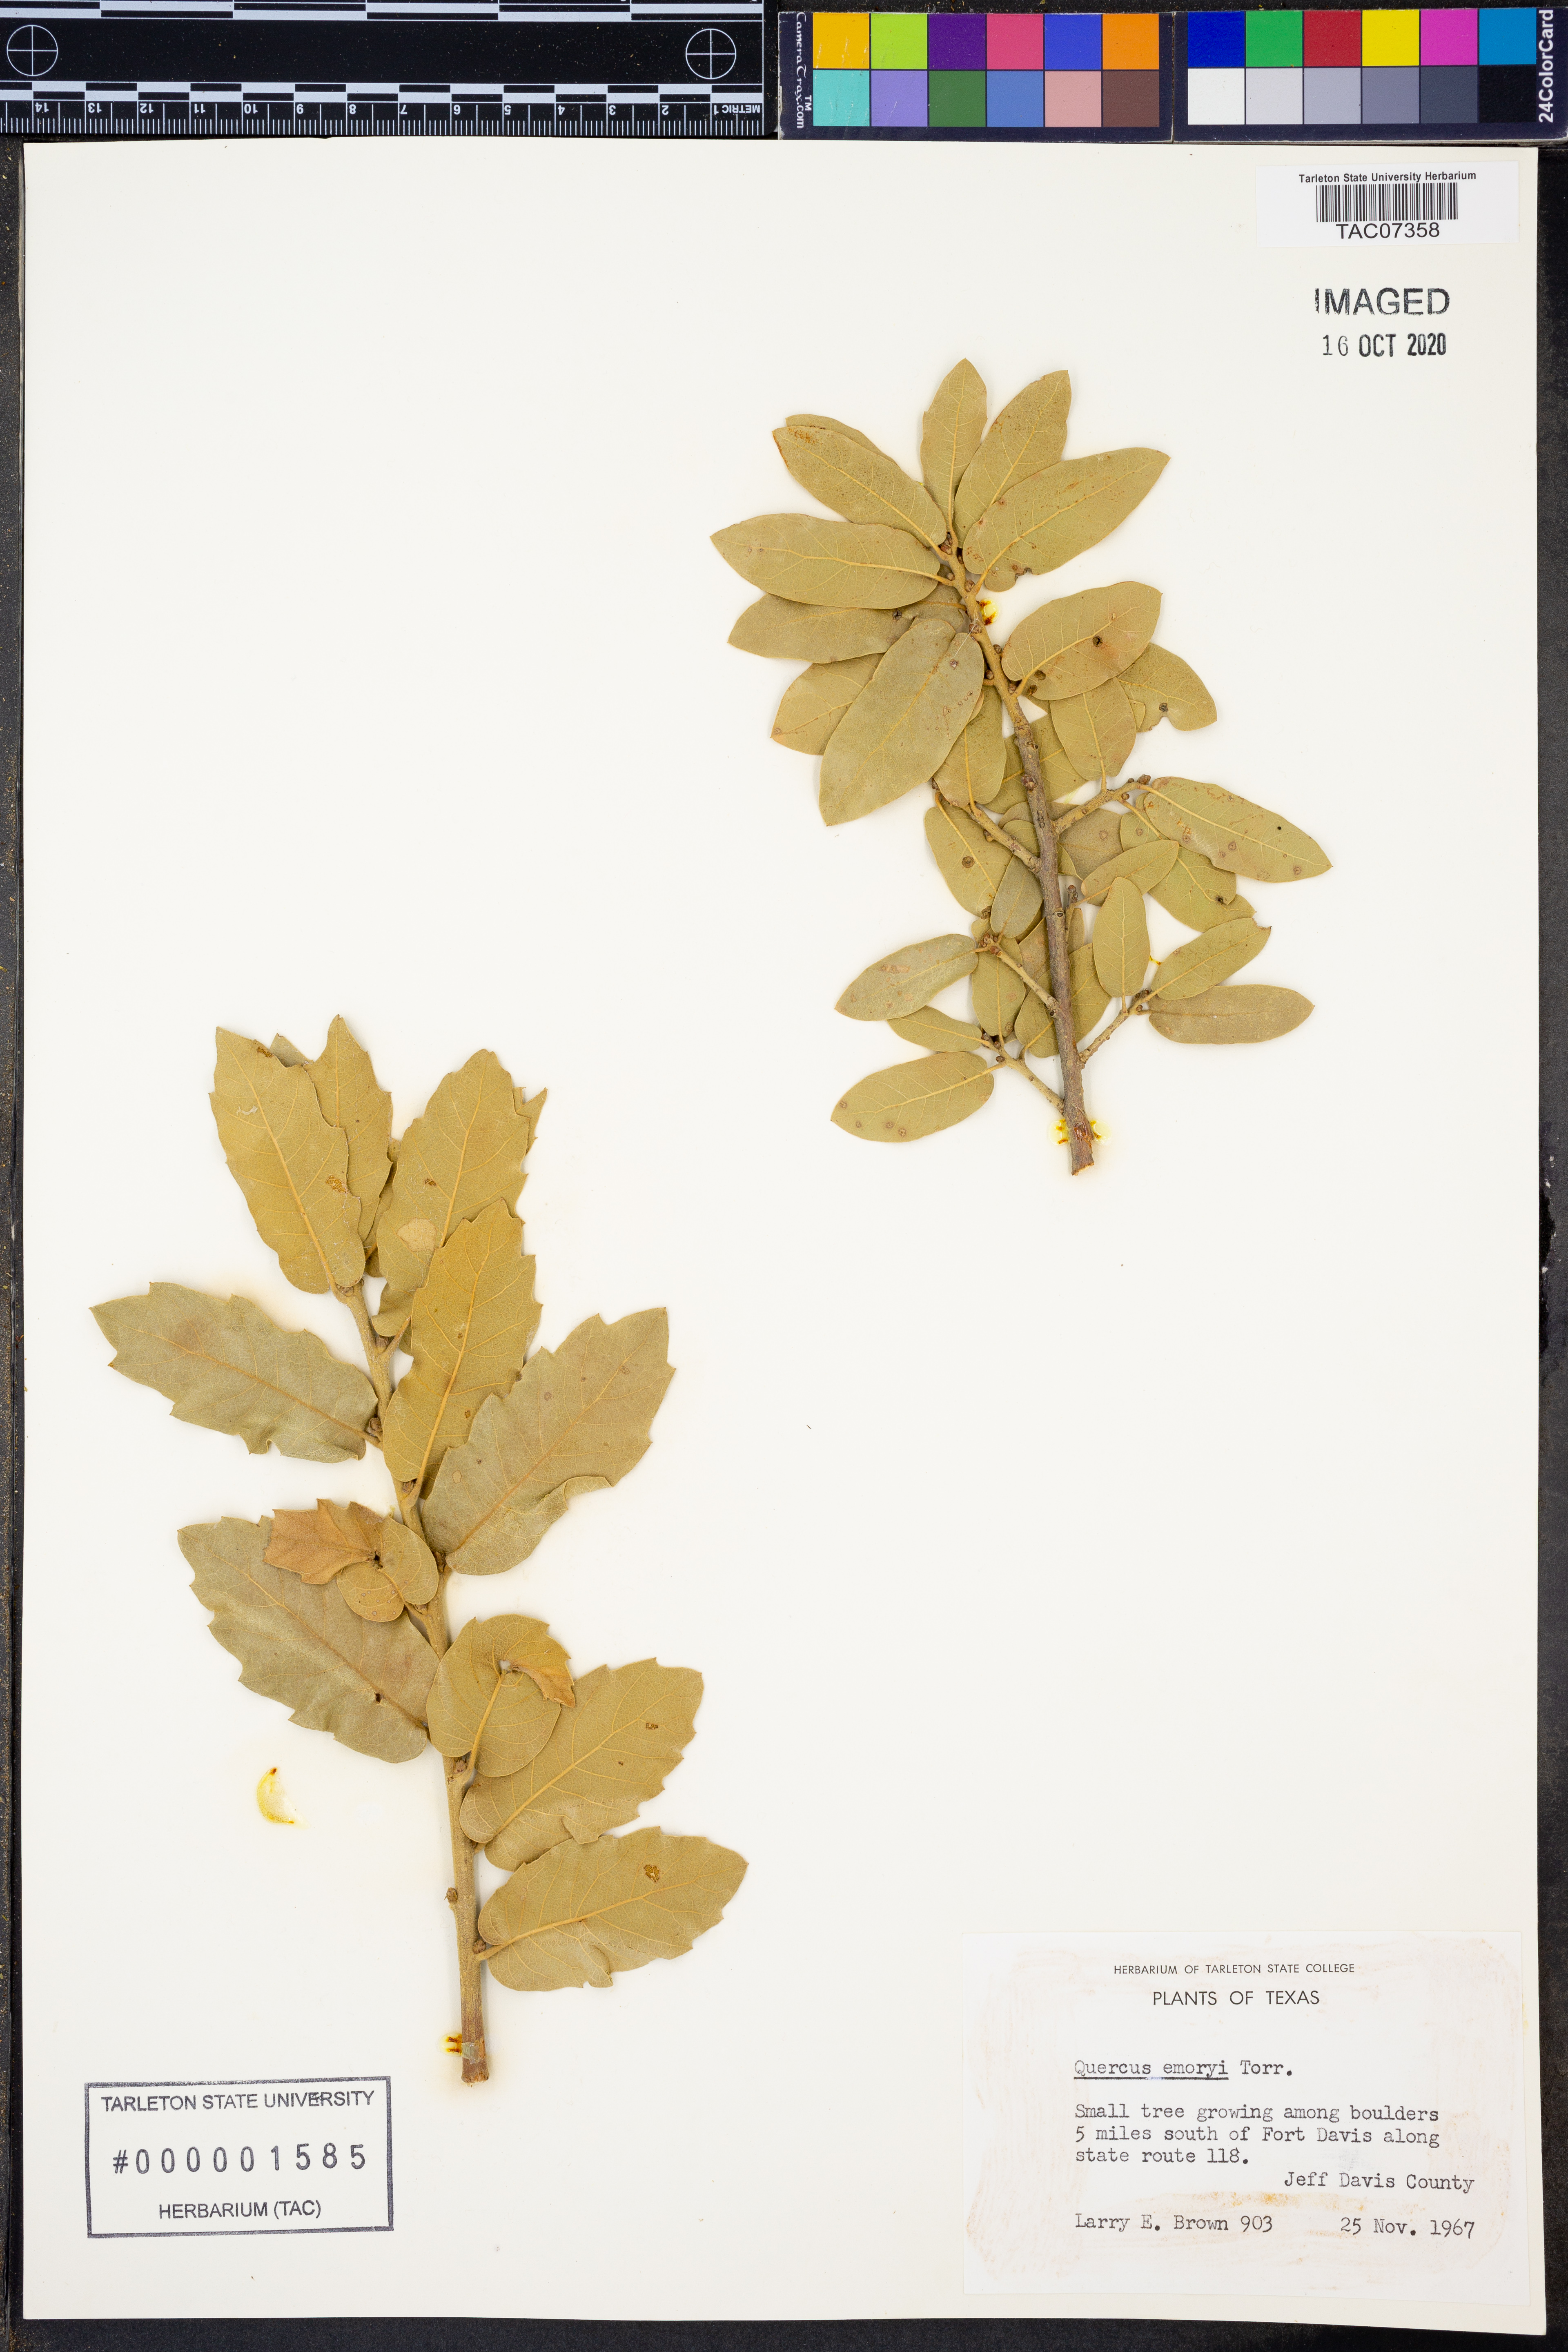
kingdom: Plantae
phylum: Tracheophyta
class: Magnoliopsida
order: Fagales
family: Fagaceae
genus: Quercus
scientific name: Quercus emoryi
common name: Emory oak
